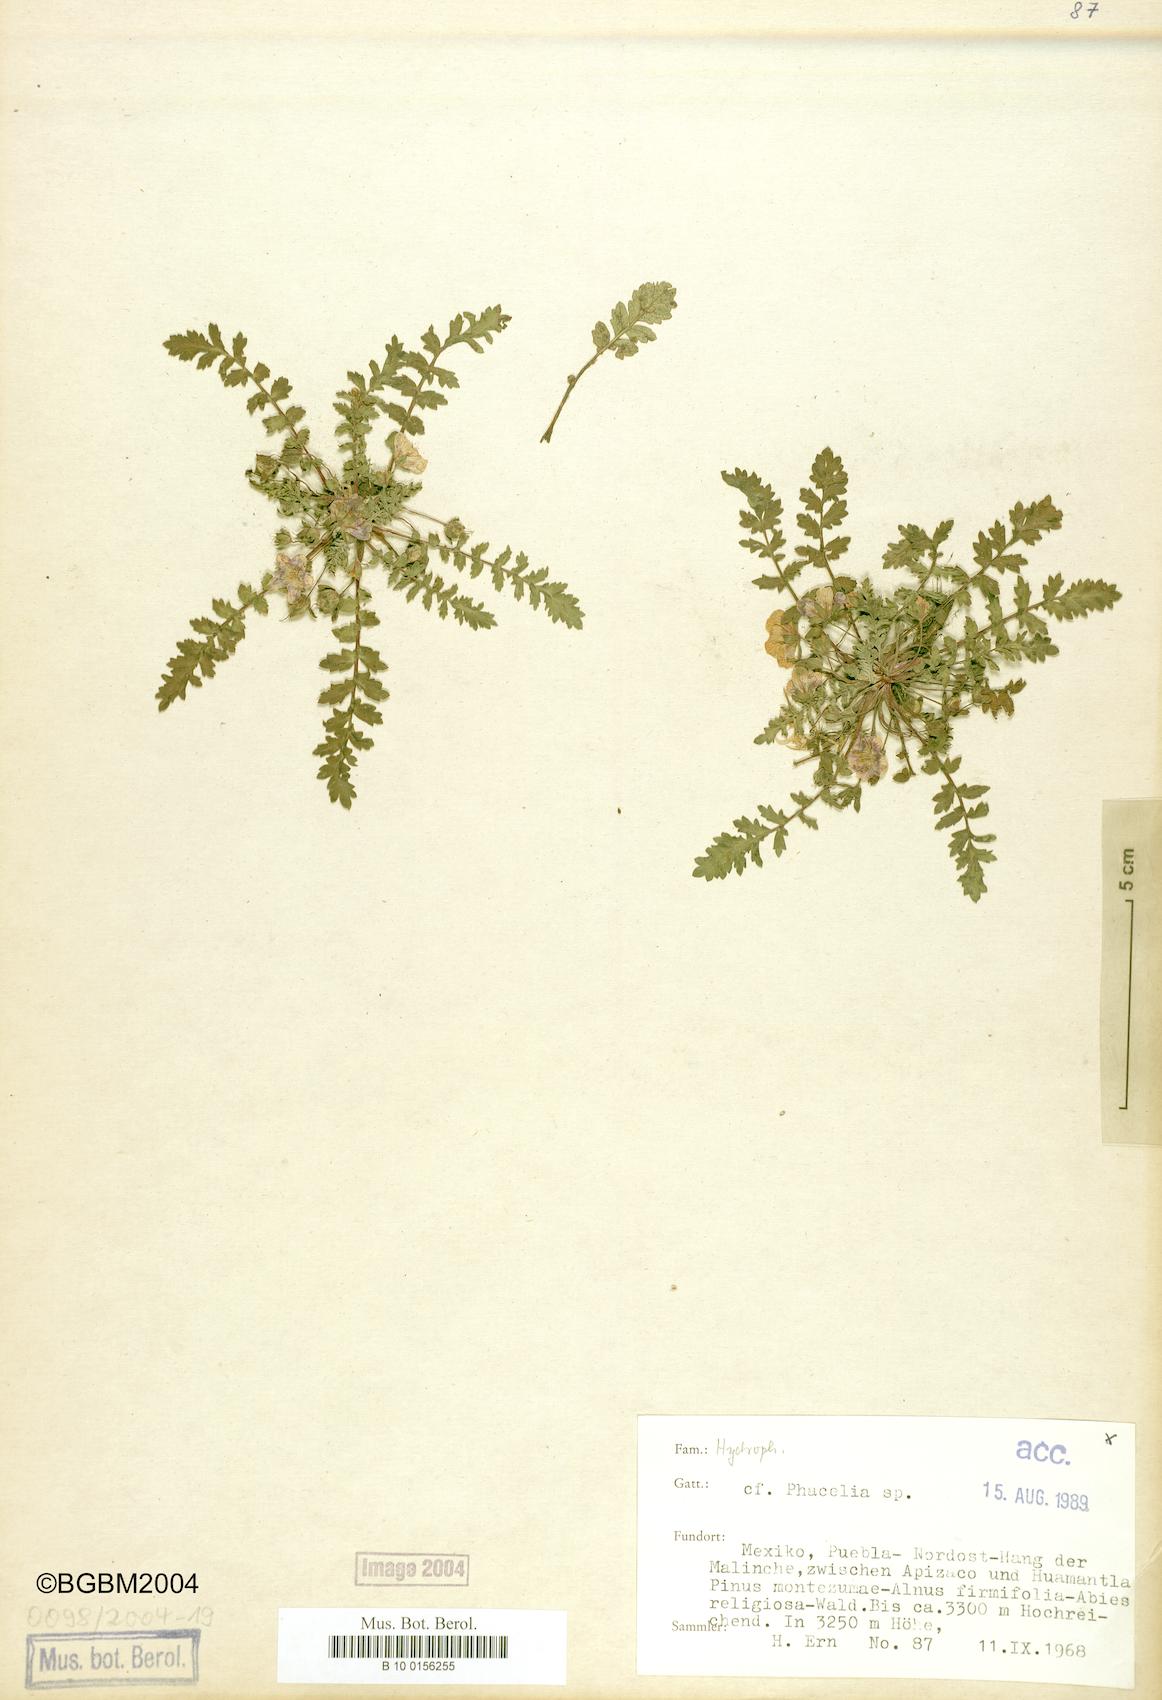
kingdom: Plantae
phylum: Tracheophyta
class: Magnoliopsida
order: Boraginales
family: Hydrophyllaceae
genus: Phacelia
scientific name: Phacelia
